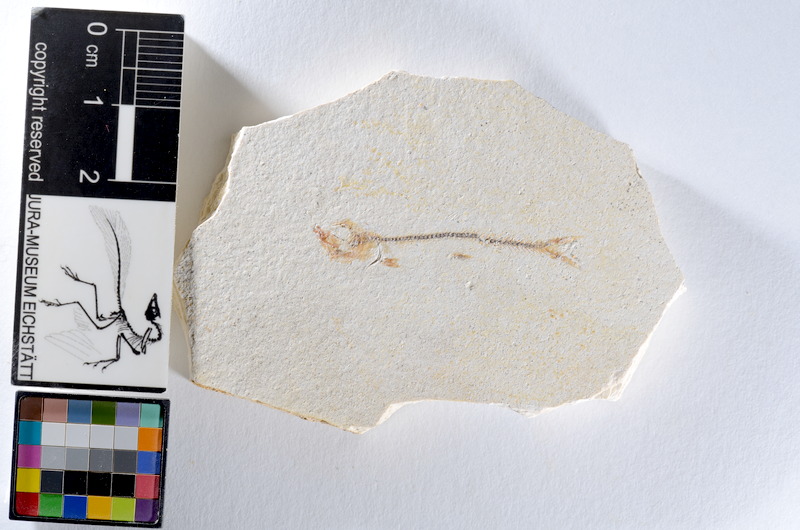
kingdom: Animalia
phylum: Chordata
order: Salmoniformes
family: Orthogonikleithridae
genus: Orthogonikleithrus
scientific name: Orthogonikleithrus hoelli
